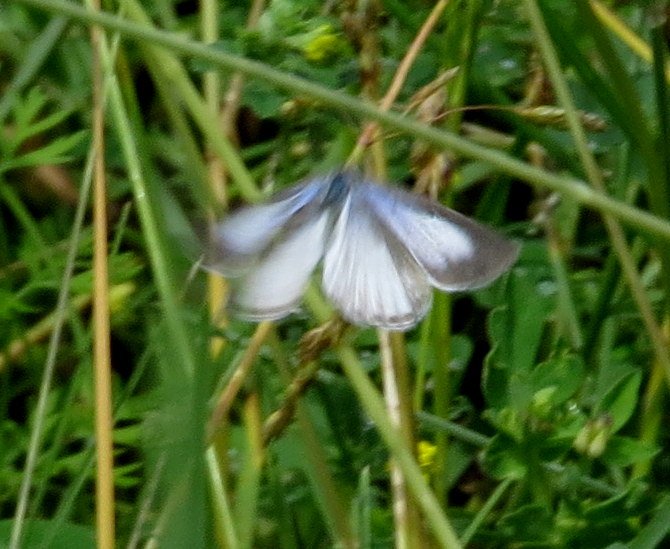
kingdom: Animalia
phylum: Arthropoda
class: Insecta
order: Lepidoptera
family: Lycaenidae
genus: Celastrina
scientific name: Celastrina
